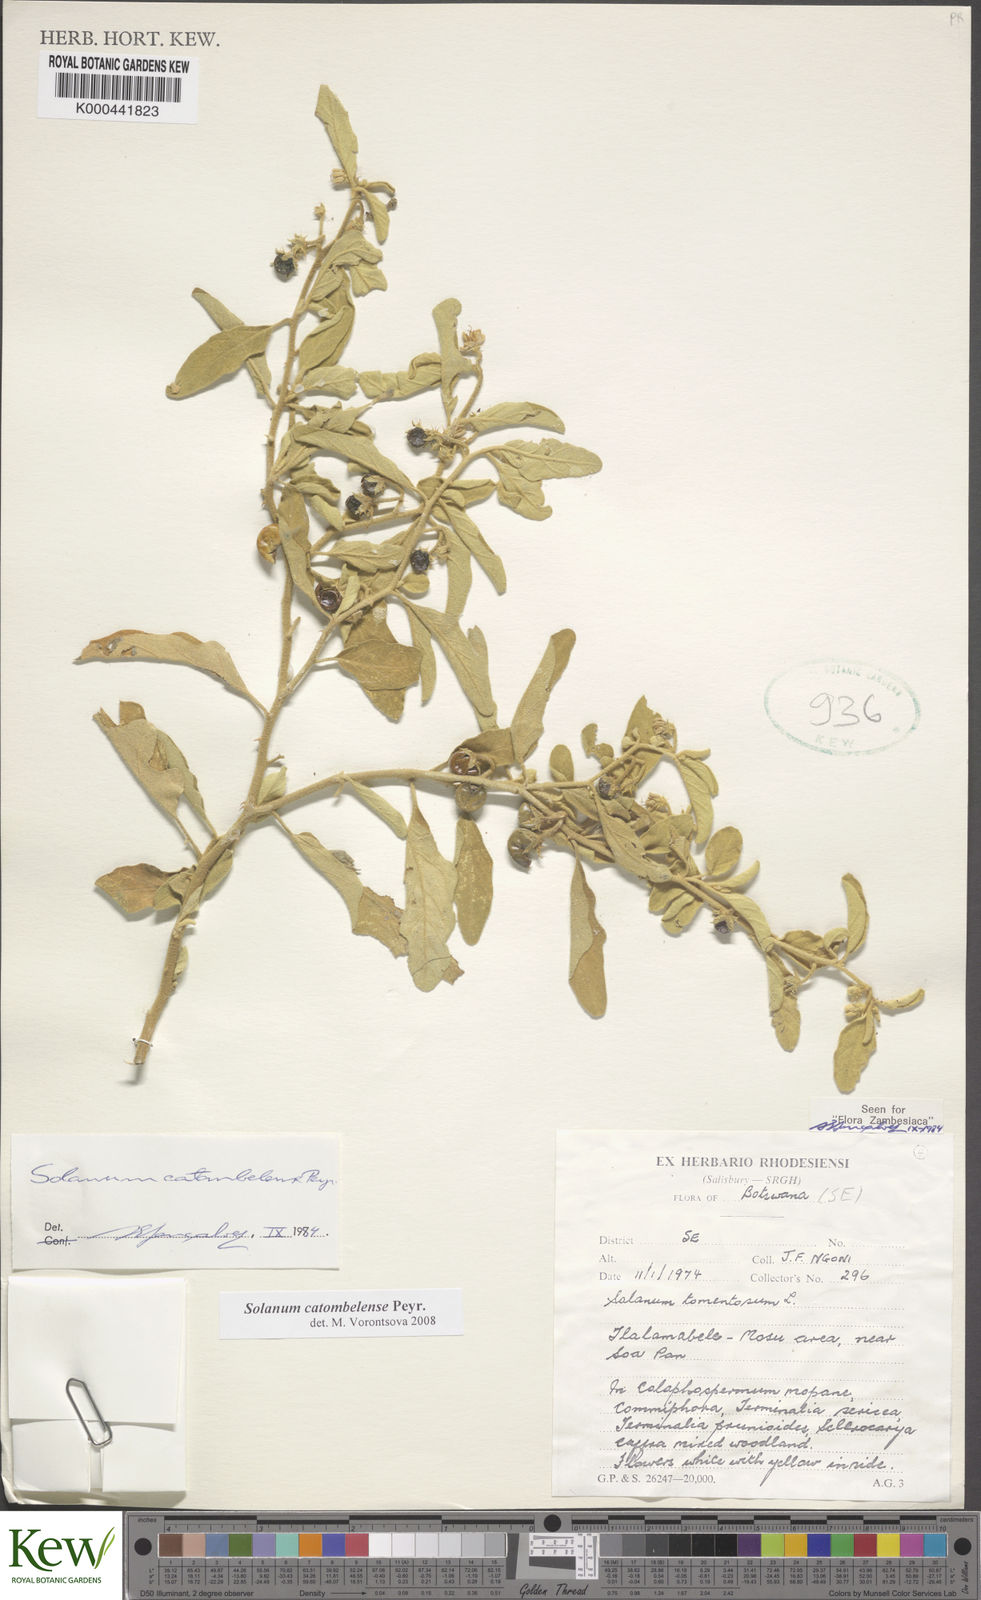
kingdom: Plantae
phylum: Tracheophyta
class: Magnoliopsida
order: Solanales
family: Solanaceae
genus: Solanum
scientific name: Solanum catombelense
